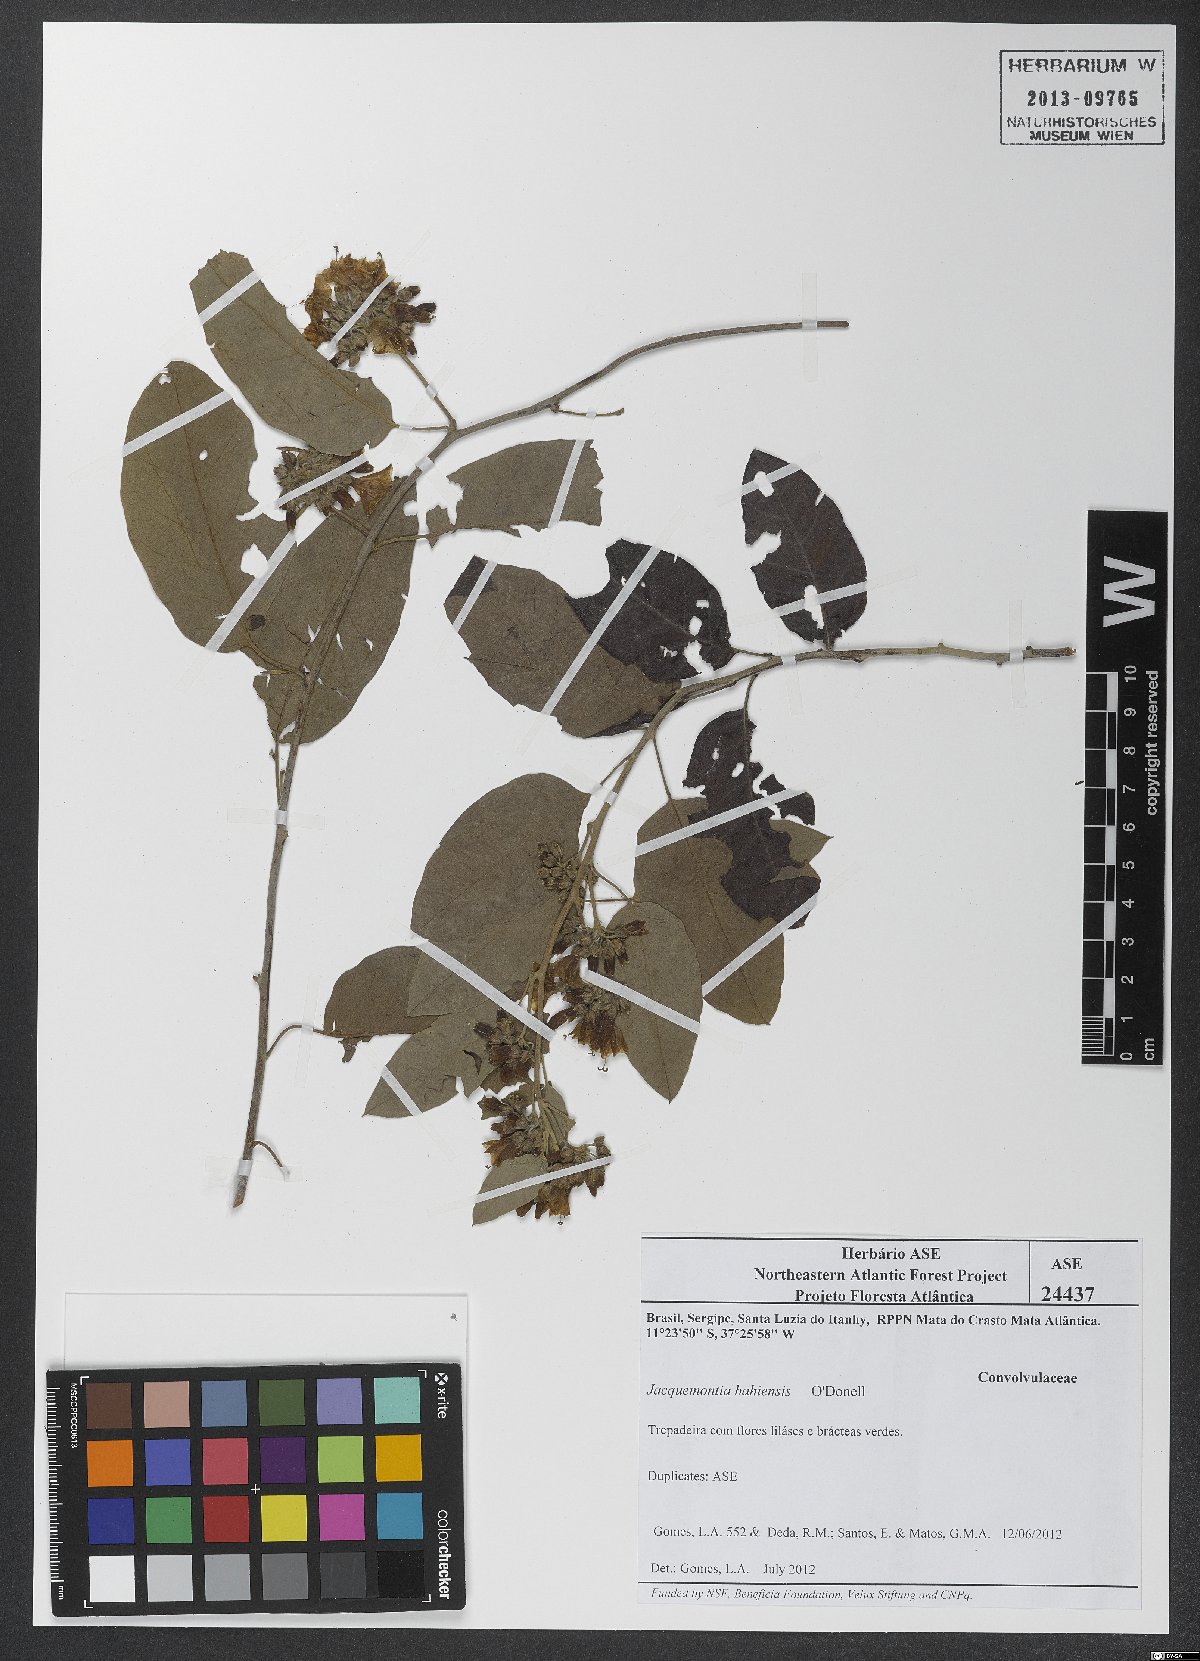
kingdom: Plantae
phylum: Tracheophyta
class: Magnoliopsida
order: Solanales
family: Convolvulaceae
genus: Jacquemontia
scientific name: Jacquemontia bahiensis
